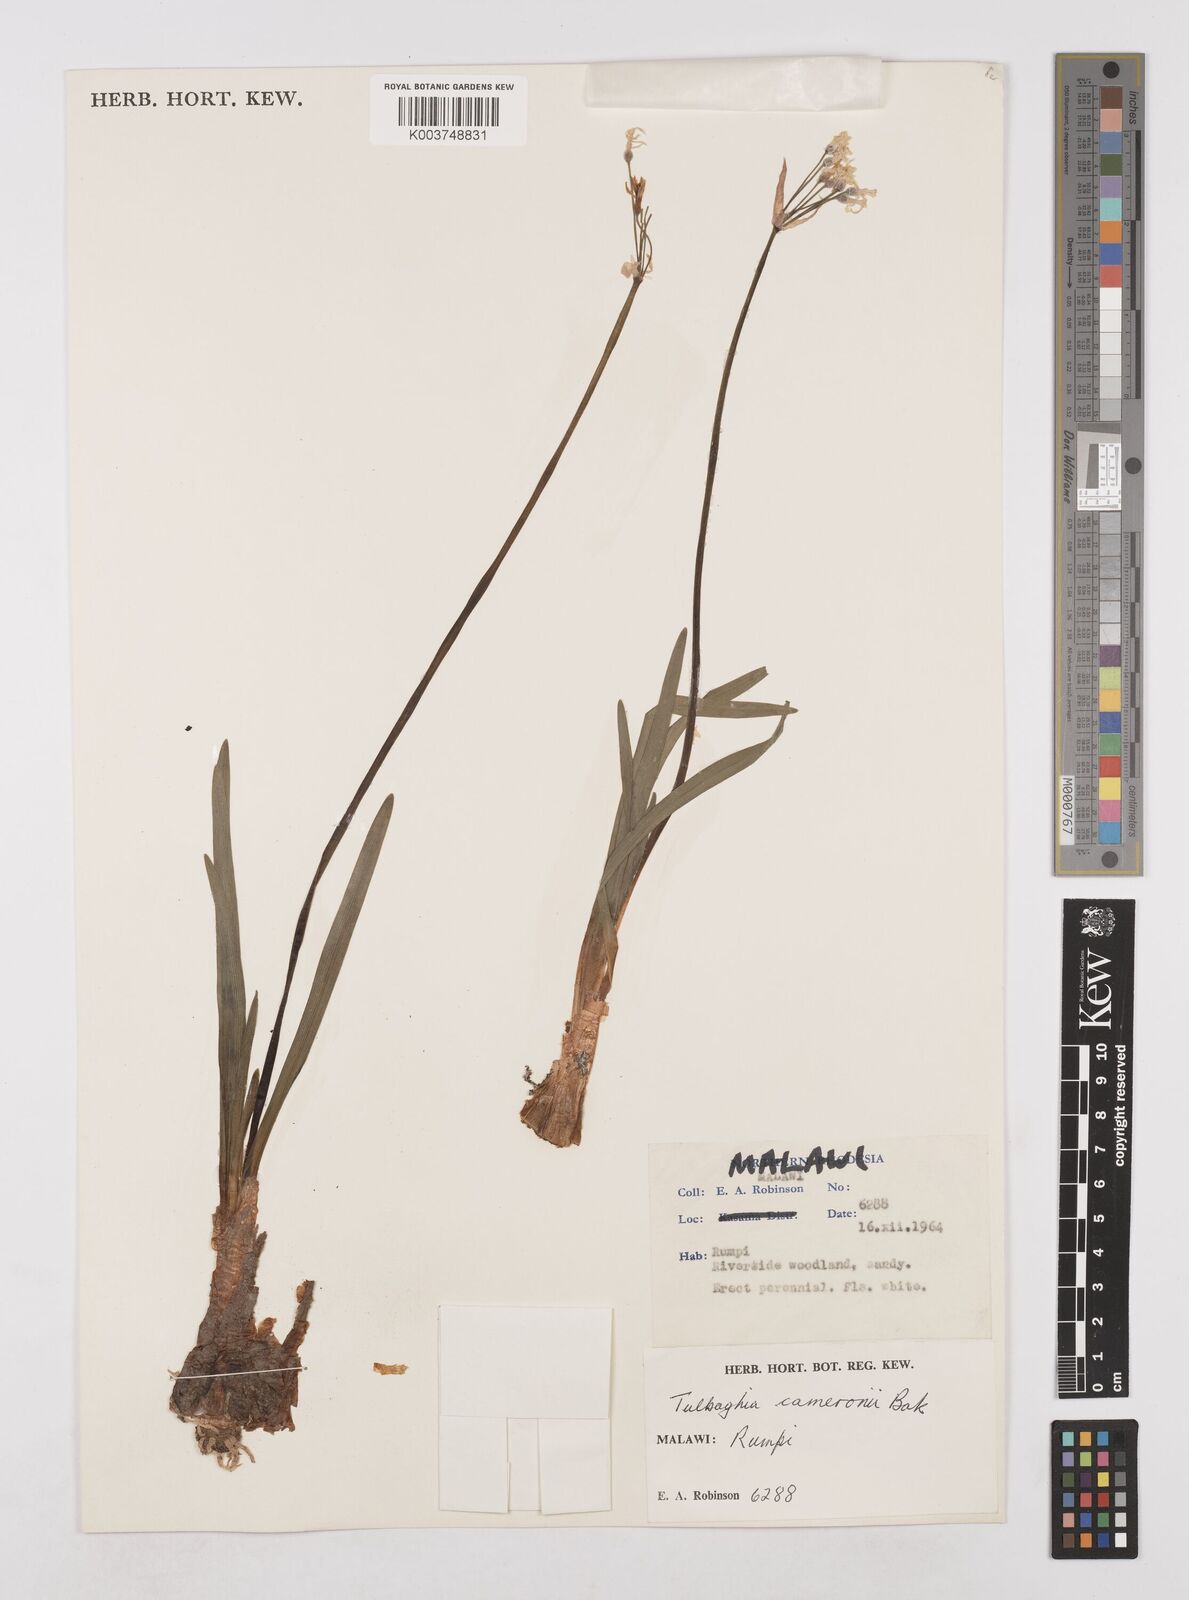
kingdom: Plantae
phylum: Tracheophyta
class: Liliopsida
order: Asparagales
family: Amaryllidaceae
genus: Tulbaghia
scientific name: Tulbaghia cameronii
